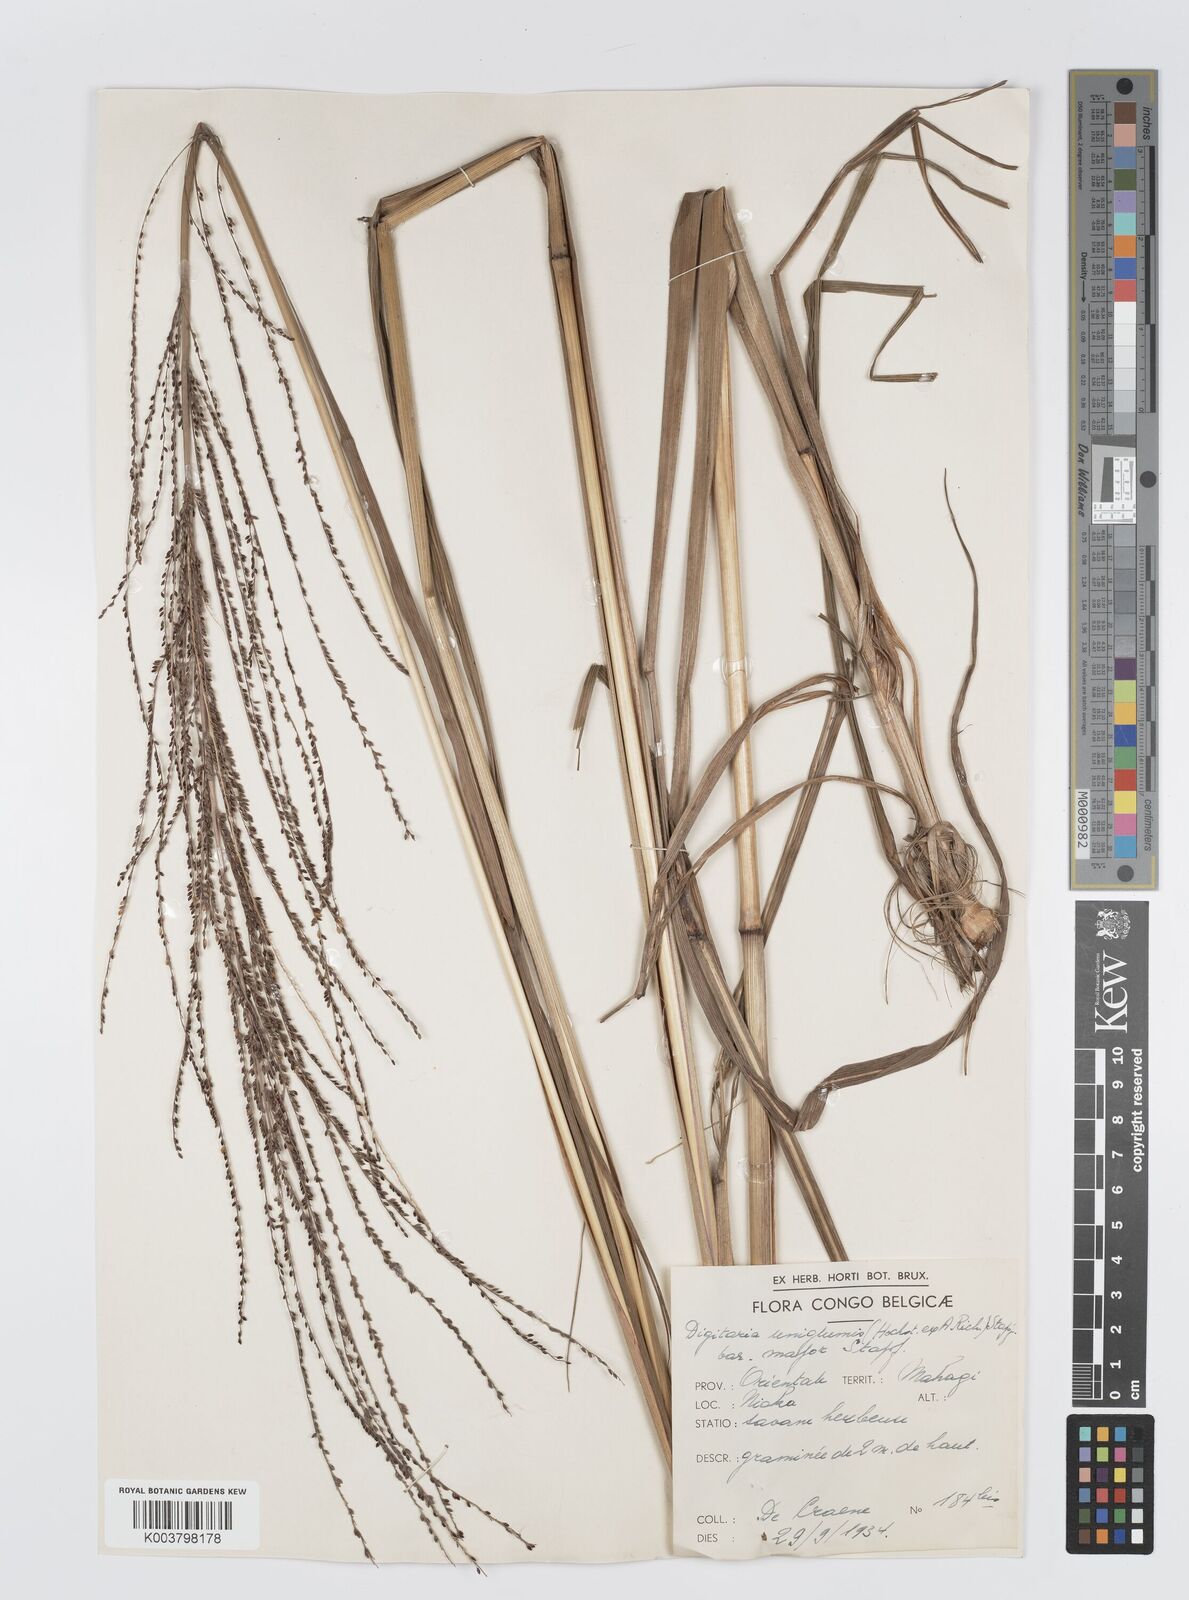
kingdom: Plantae
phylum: Tracheophyta
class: Liliopsida
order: Poales
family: Poaceae
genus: Digitaria
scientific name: Digitaria diagonalis
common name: Brown-seed finger grass
